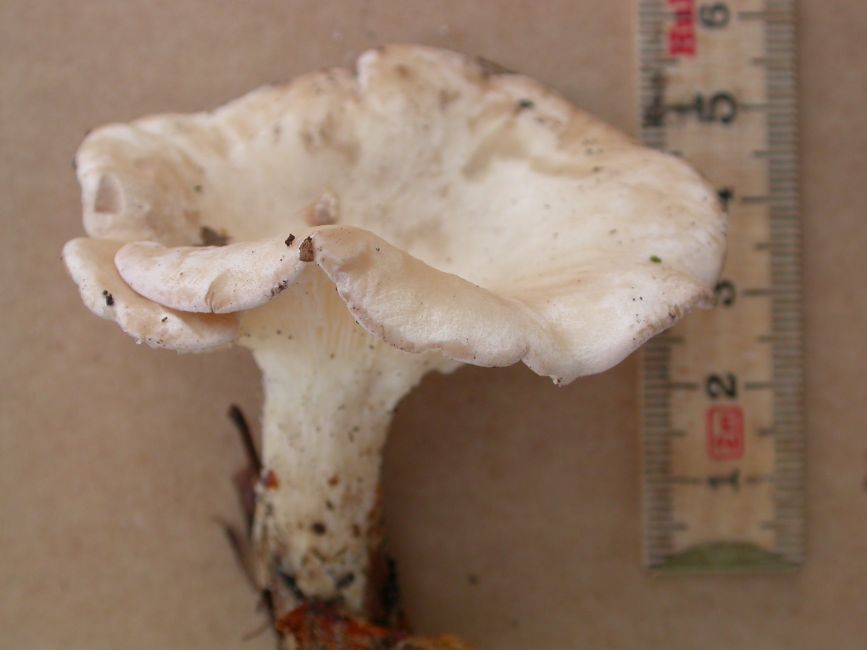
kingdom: Fungi
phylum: Basidiomycota
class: Agaricomycetes
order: Agaricales
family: Tricholomataceae
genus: Infundibulicybe
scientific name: Infundibulicybe gibba
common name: almindelig tragthat
